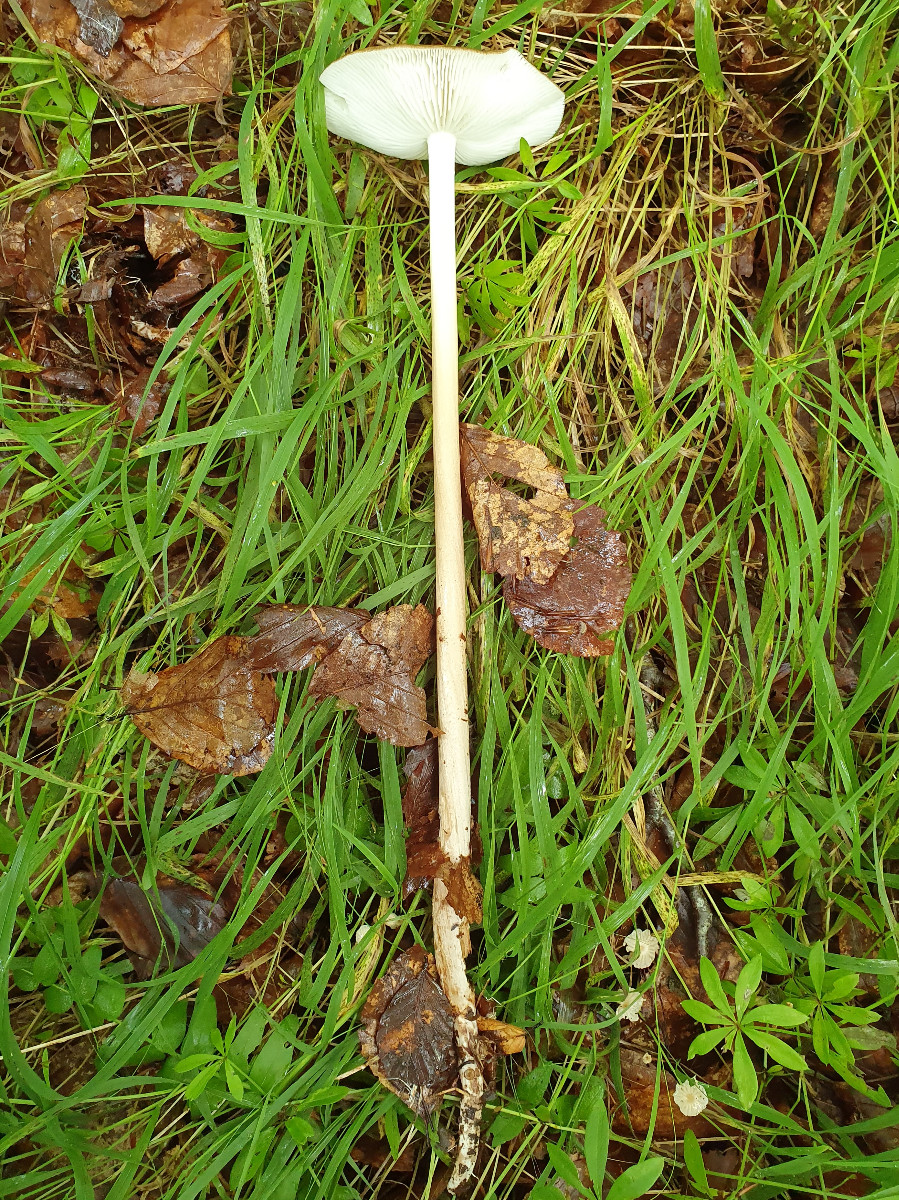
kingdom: Fungi
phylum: Basidiomycota
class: Agaricomycetes
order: Agaricales
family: Physalacriaceae
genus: Hymenopellis
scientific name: Hymenopellis radicata
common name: almindelig pælerodshat
